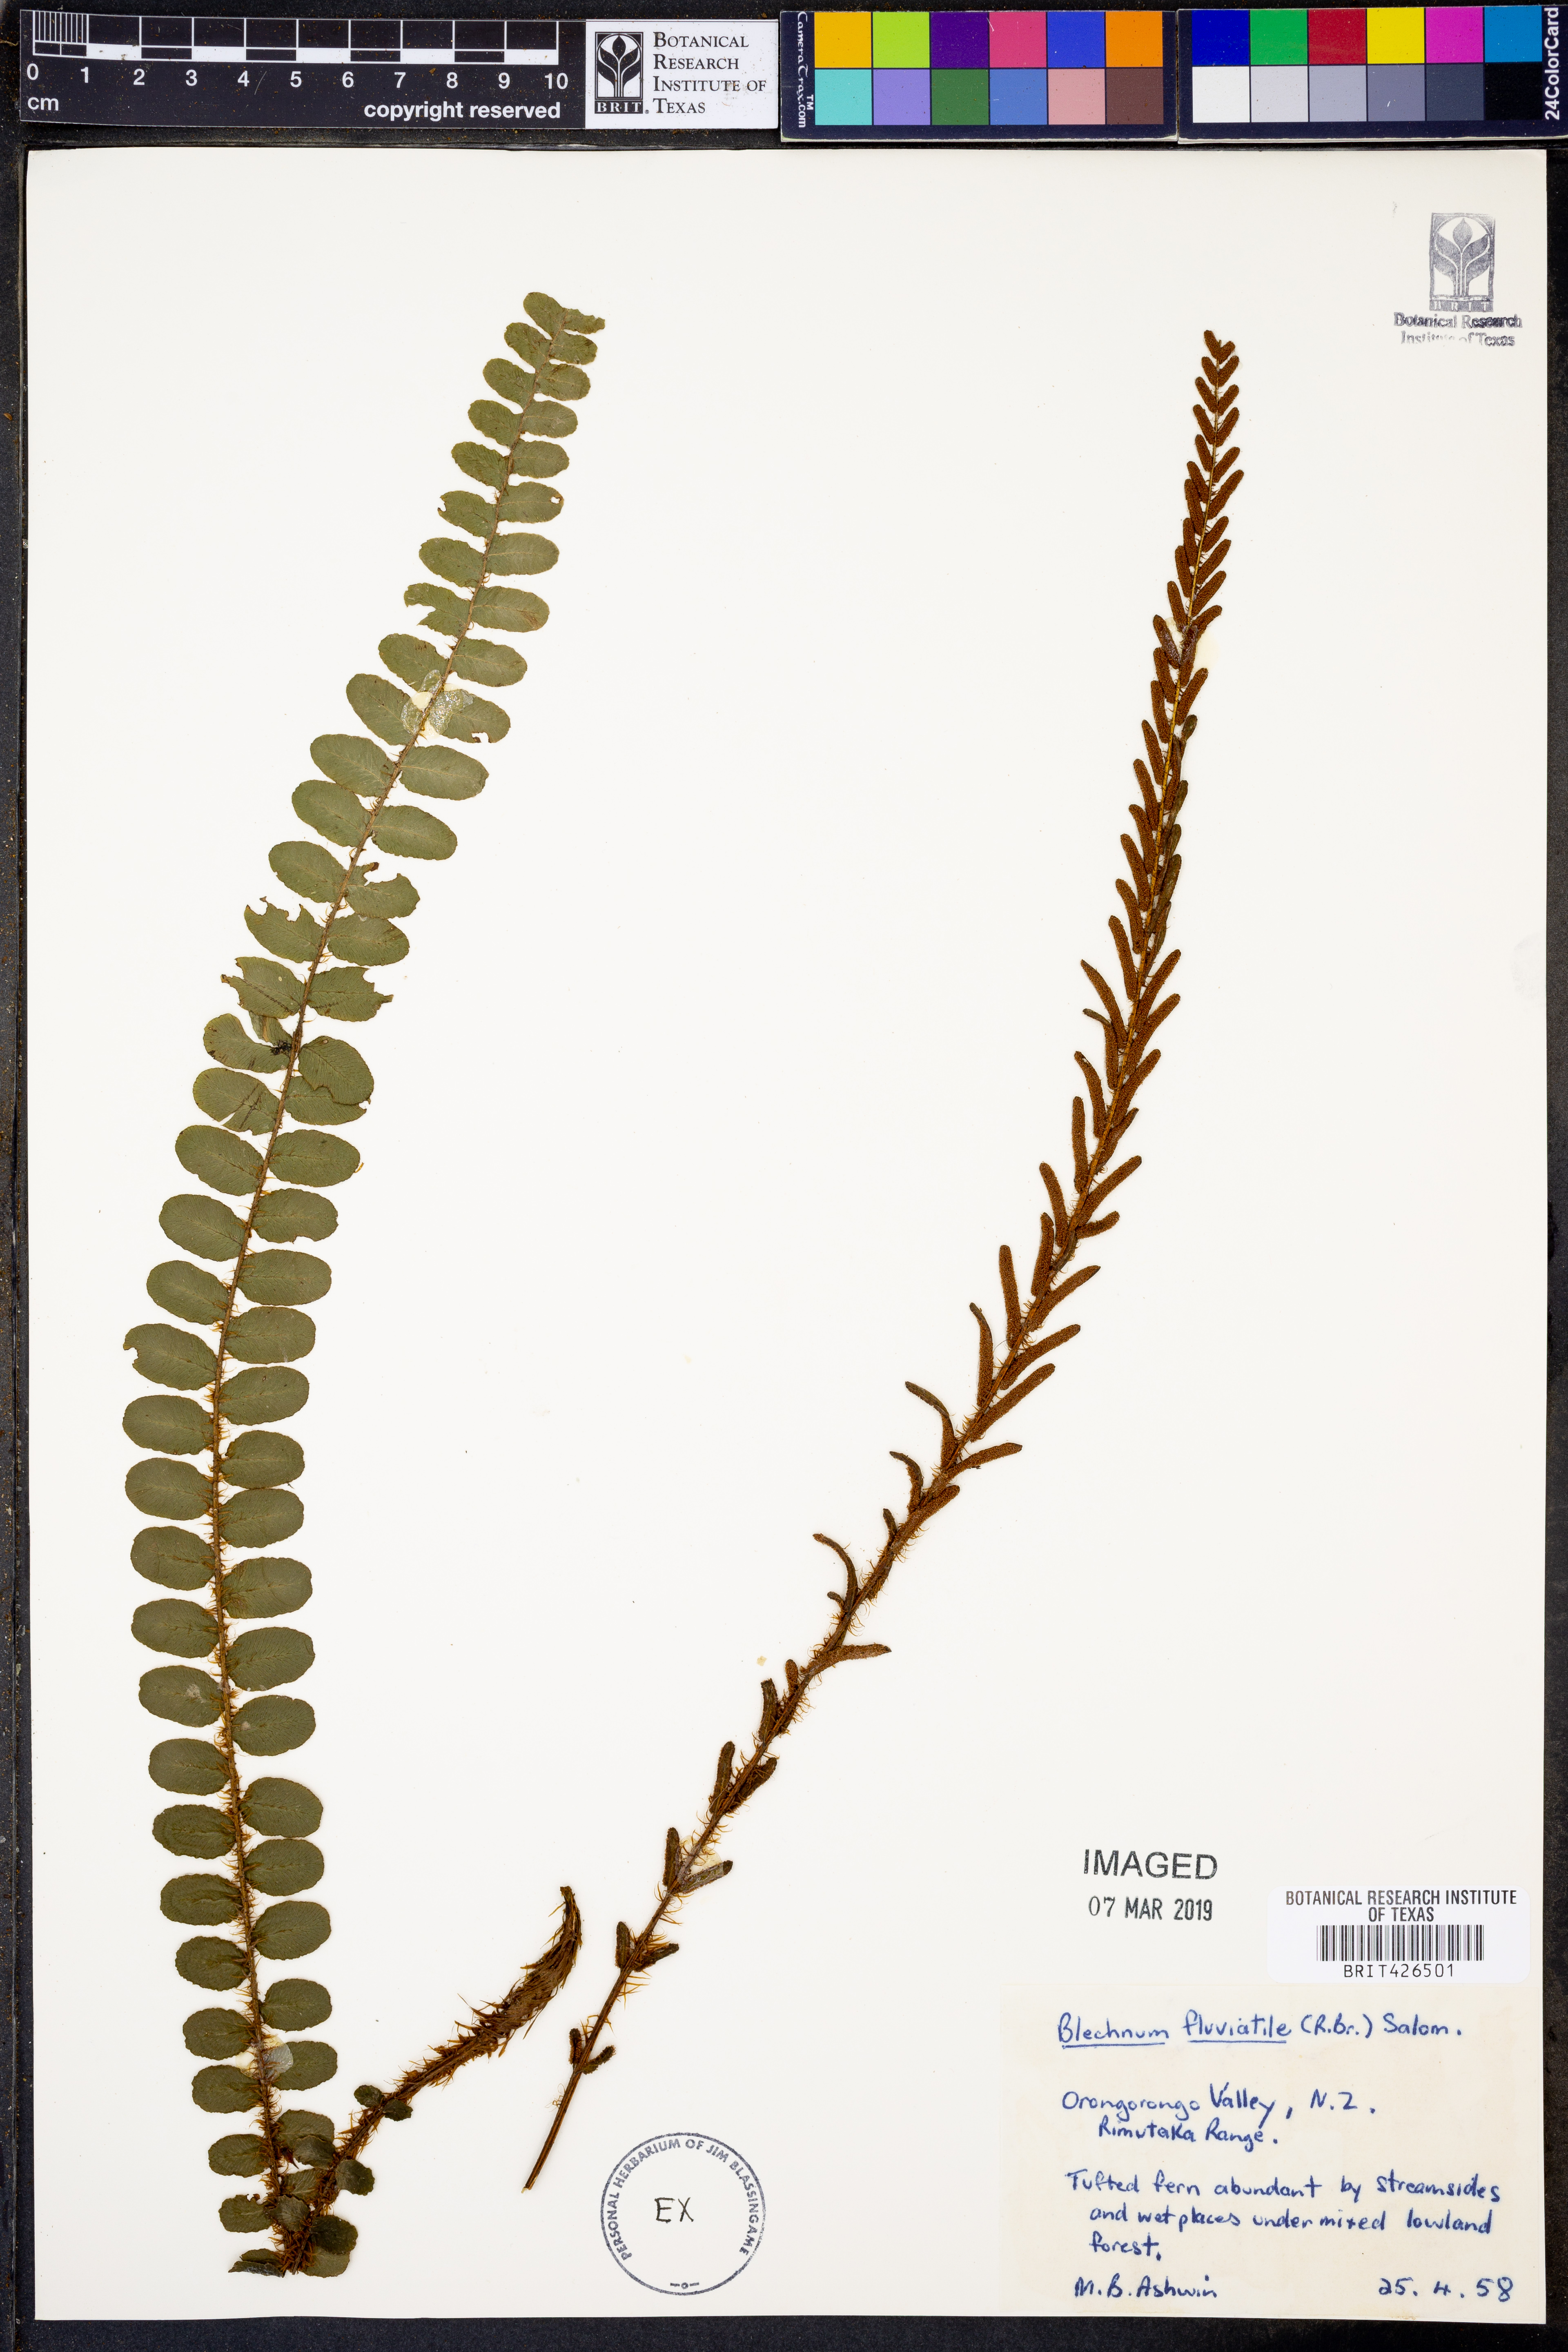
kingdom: Plantae
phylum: Tracheophyta
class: Polypodiopsida
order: Polypodiales
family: Blechnaceae
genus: Cranfillia
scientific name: Cranfillia fluviatilis
